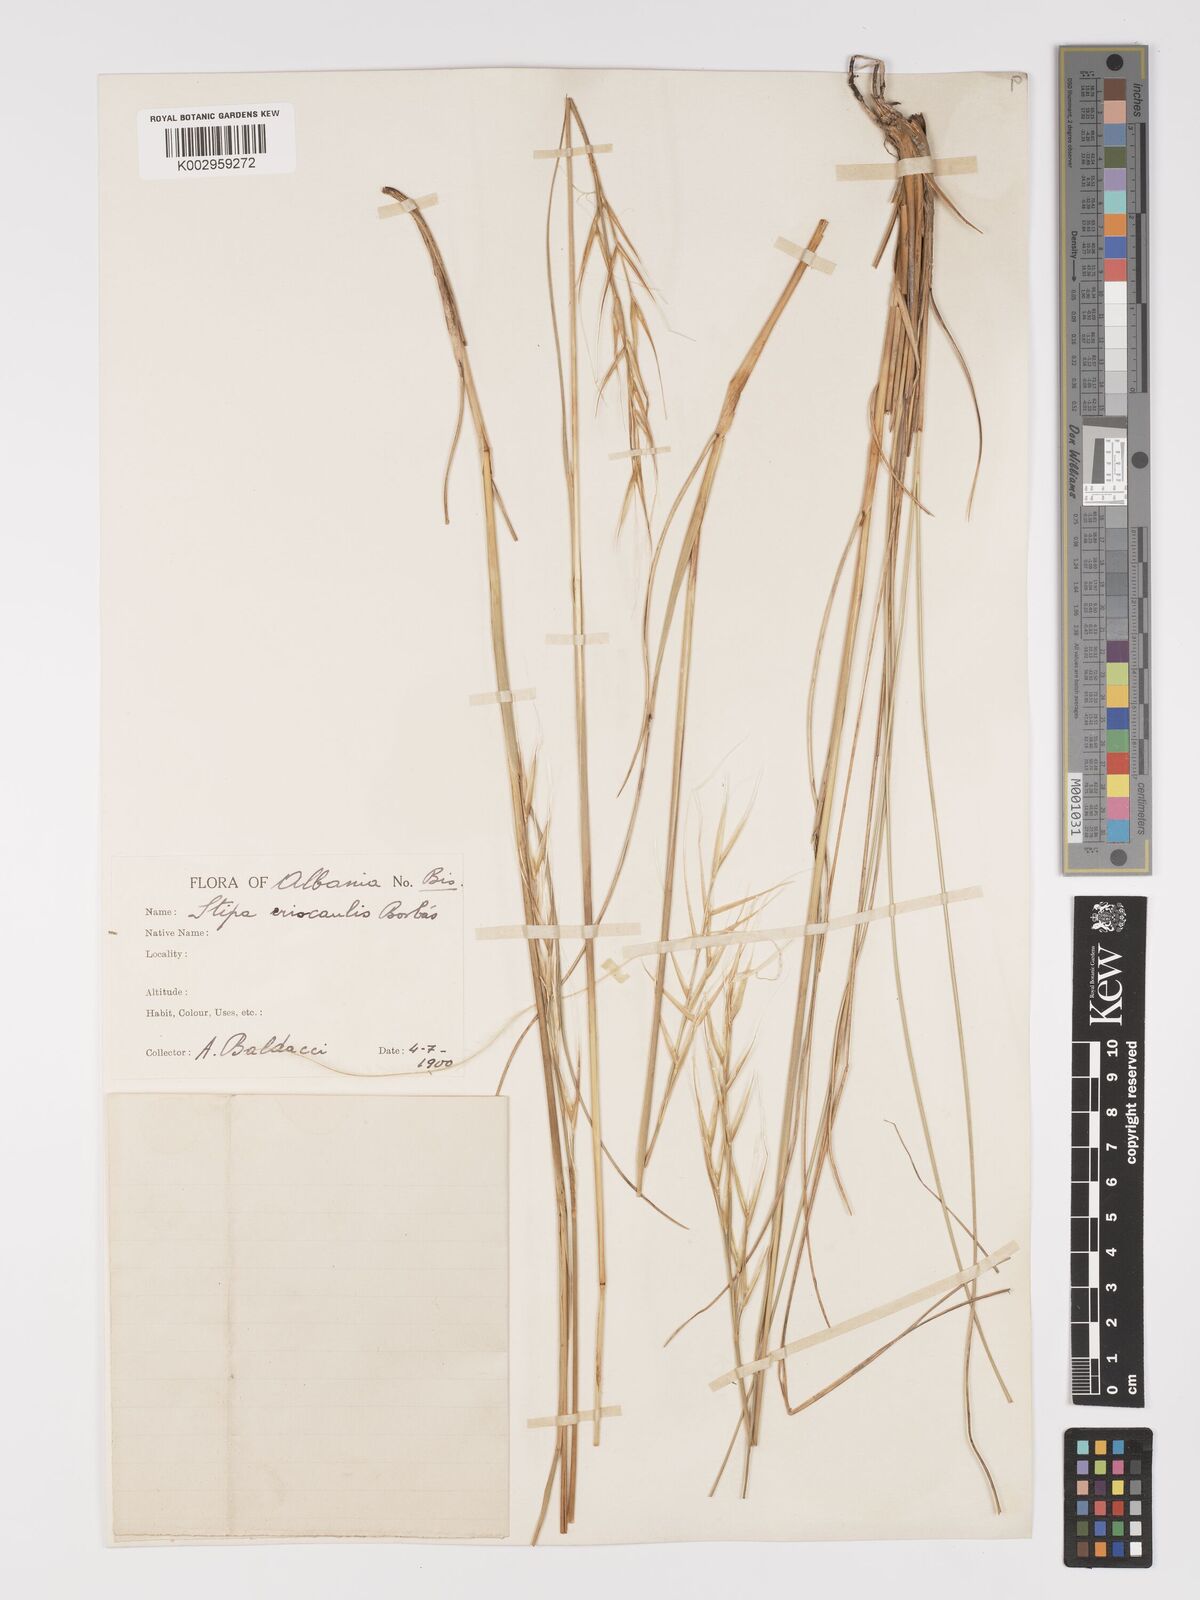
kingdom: Plantae
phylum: Tracheophyta
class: Liliopsida
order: Poales
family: Poaceae
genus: Stipa
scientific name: Stipa pulcherrima
